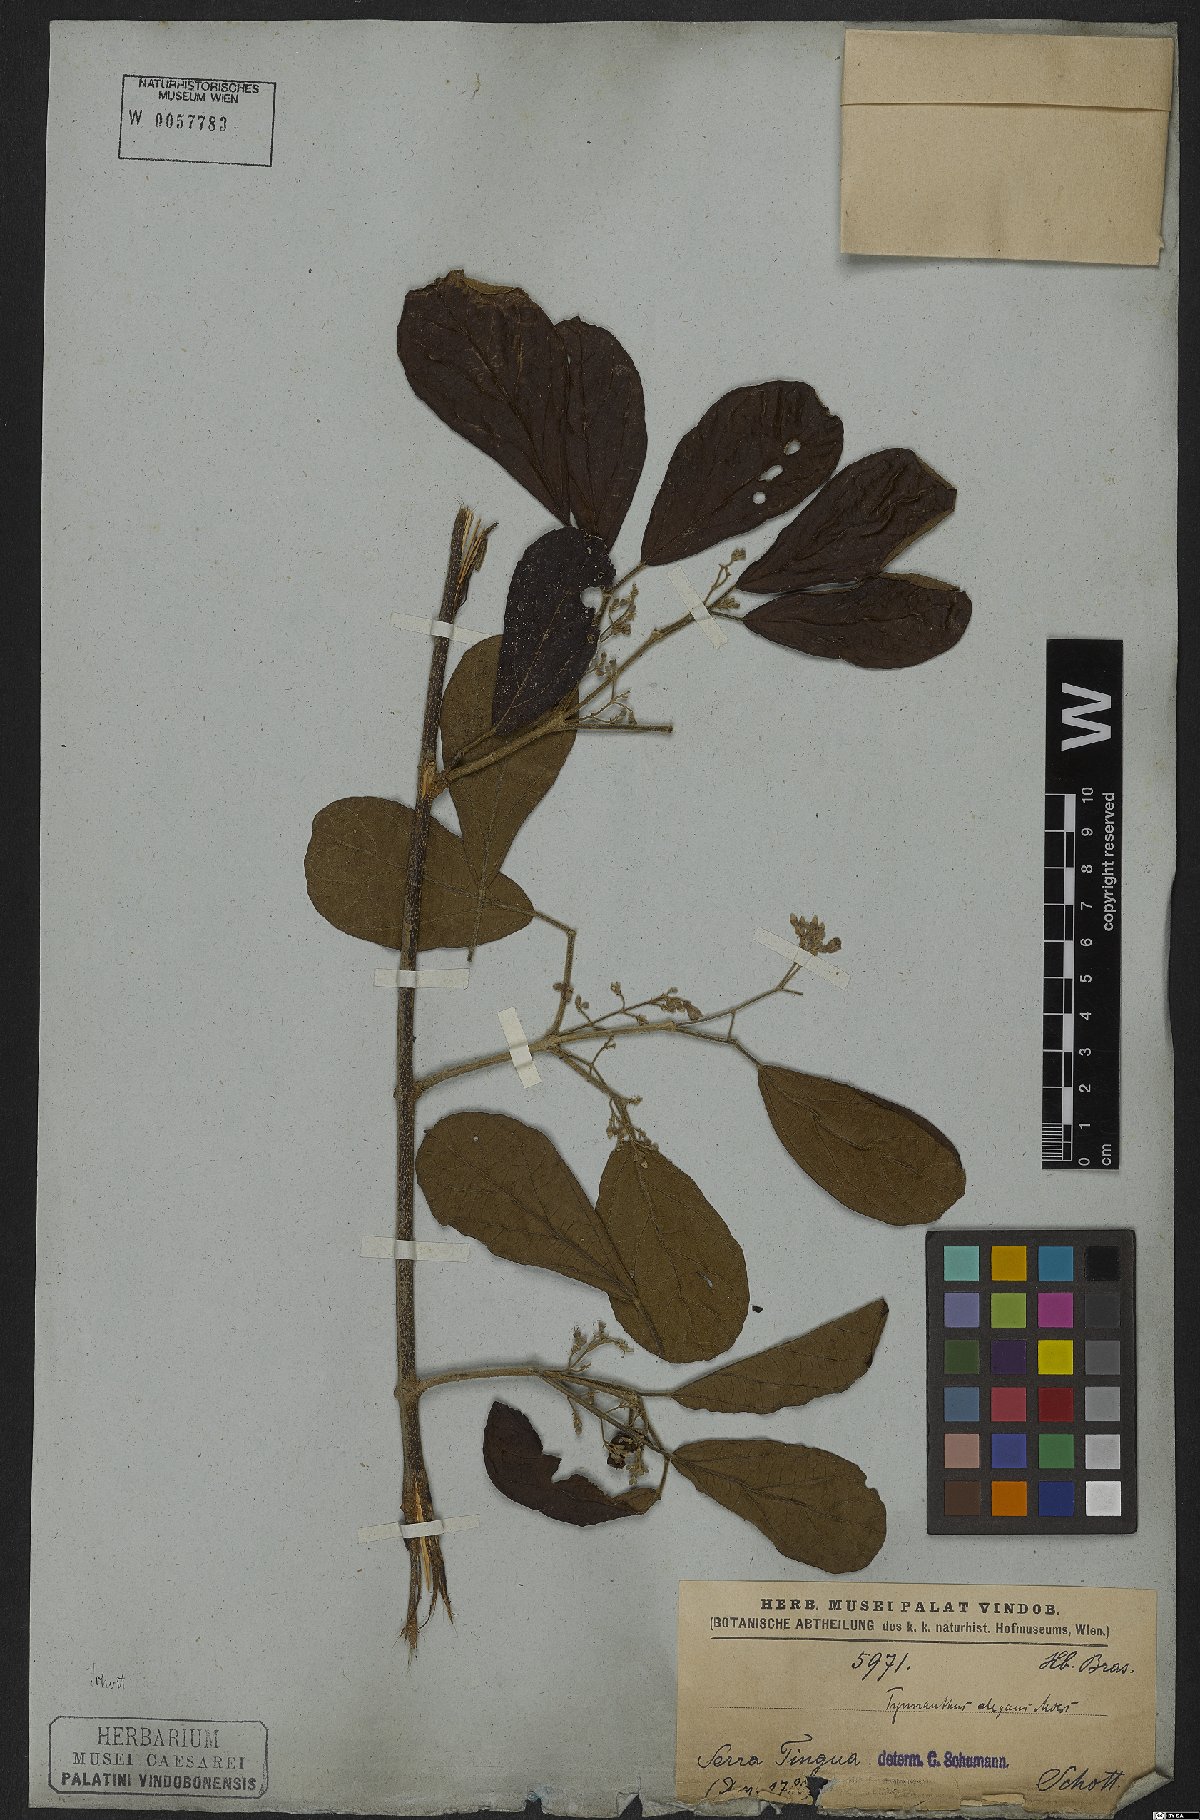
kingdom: Plantae
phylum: Tracheophyta
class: Magnoliopsida
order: Lamiales
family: Bignoniaceae
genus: Tynanthus
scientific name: Tynanthus elegans
